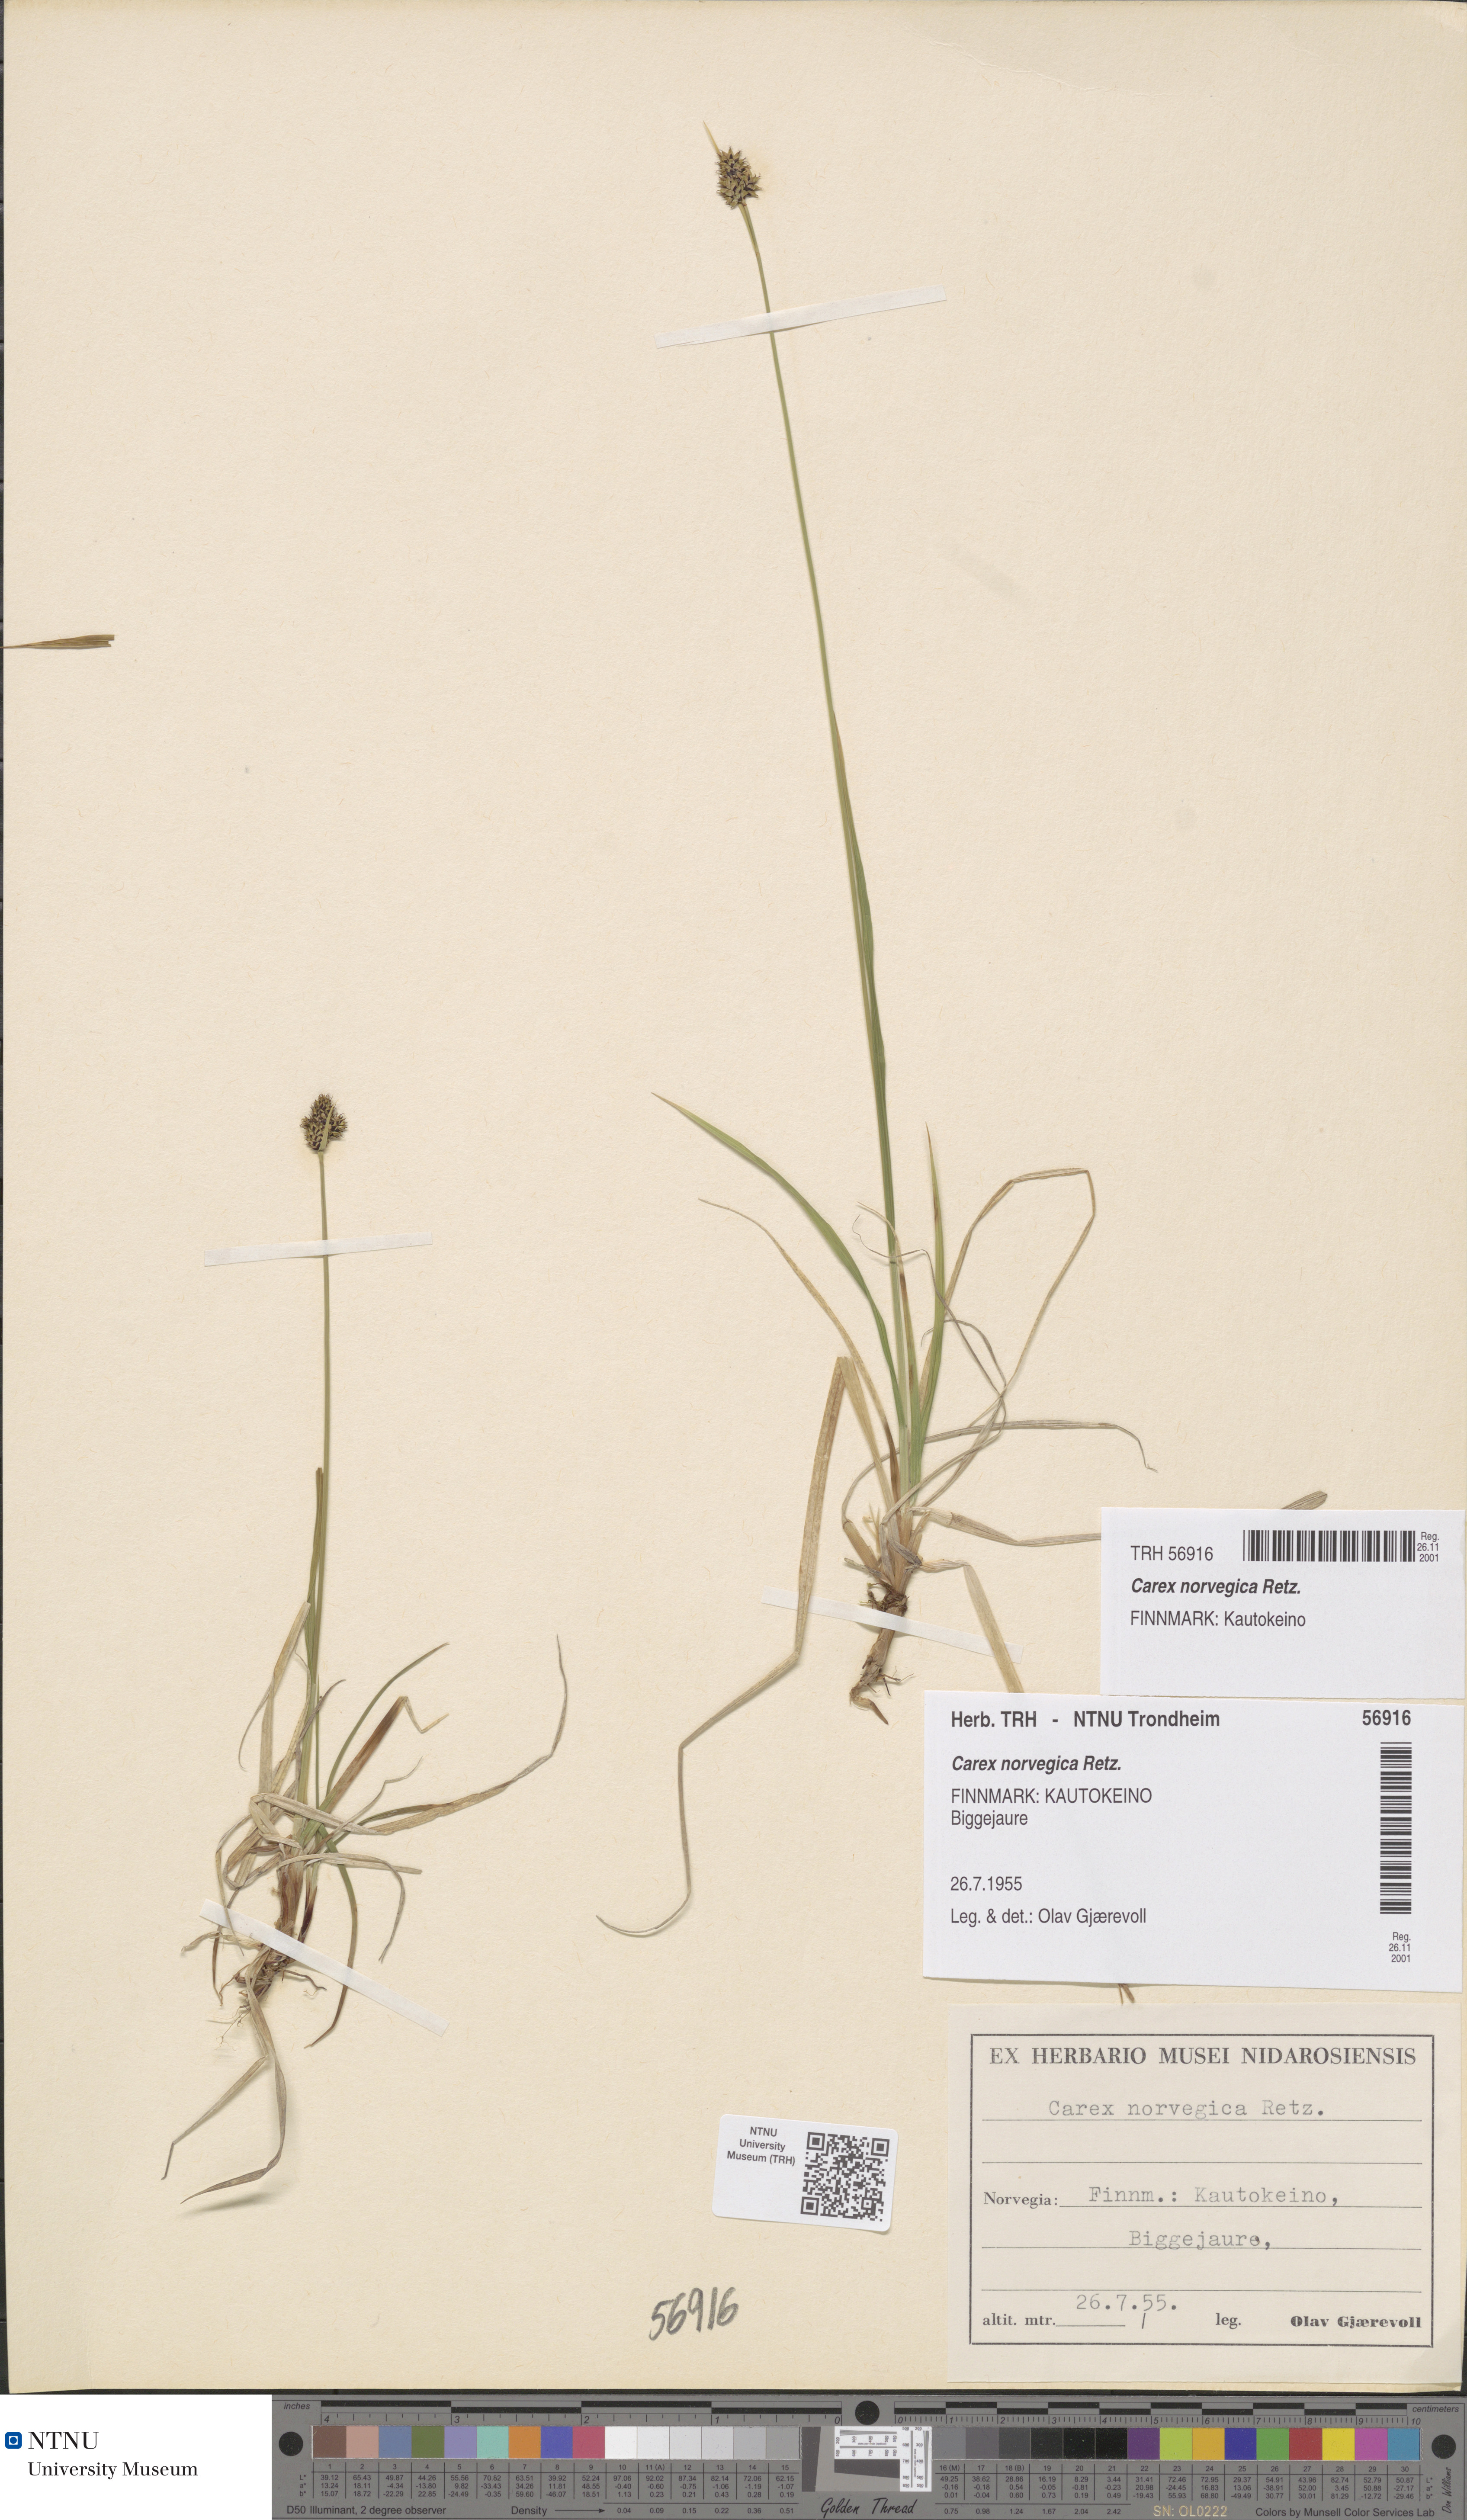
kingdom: Plantae
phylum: Tracheophyta
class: Liliopsida
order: Poales
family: Cyperaceae
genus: Carex
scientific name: Carex media
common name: Alpine sedge
